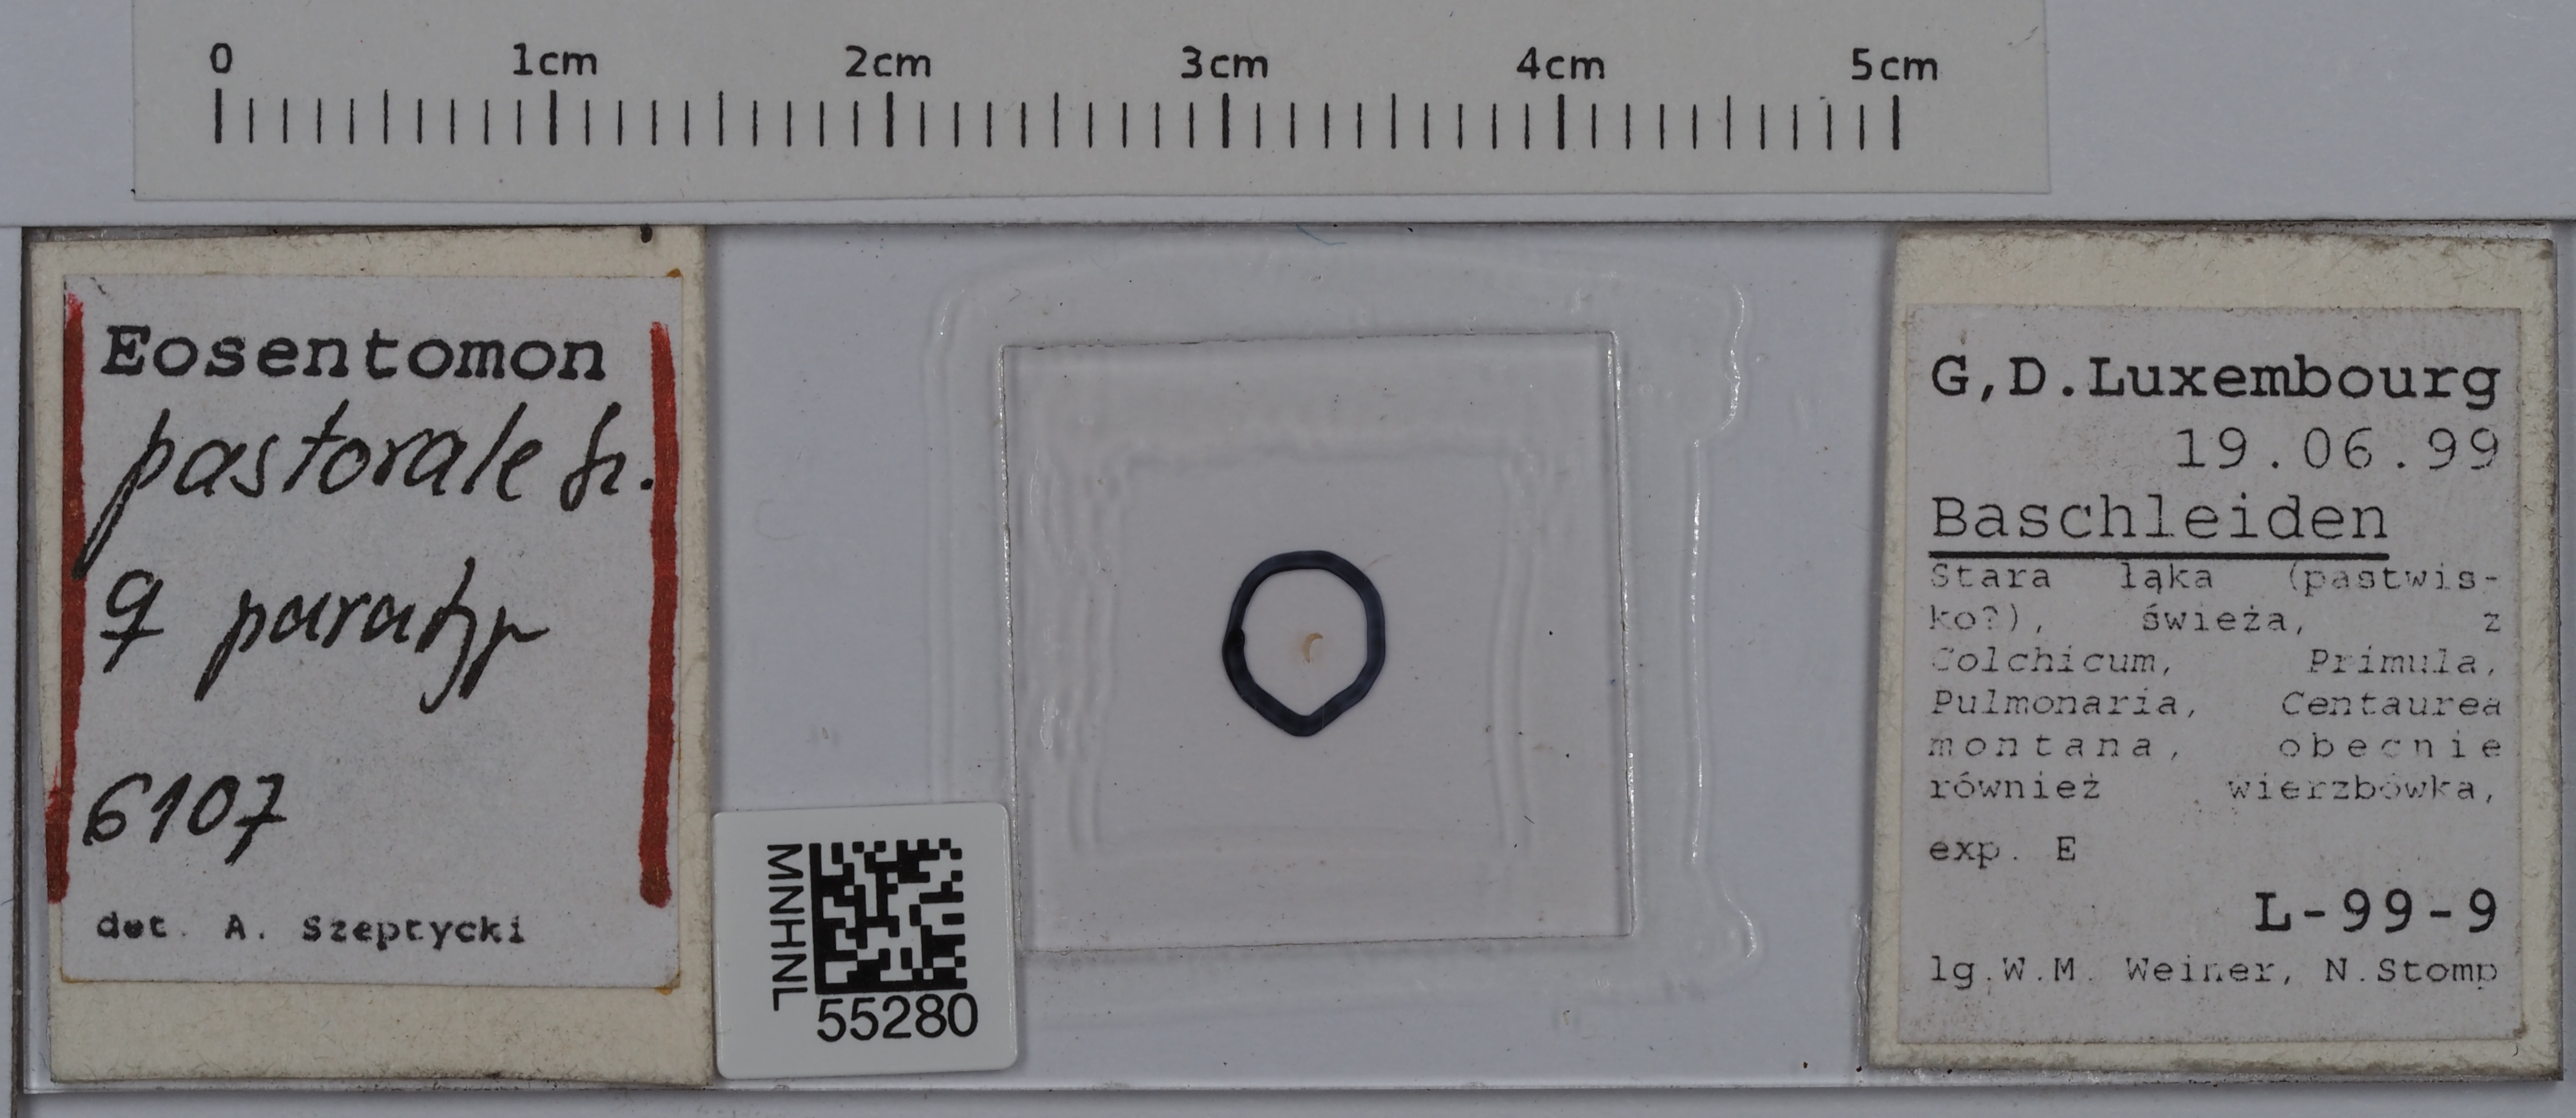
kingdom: Animalia
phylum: Arthropoda
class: Protura
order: Protura
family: Eosentomidae
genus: Eosentomon
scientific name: Eosentomon pastorale
